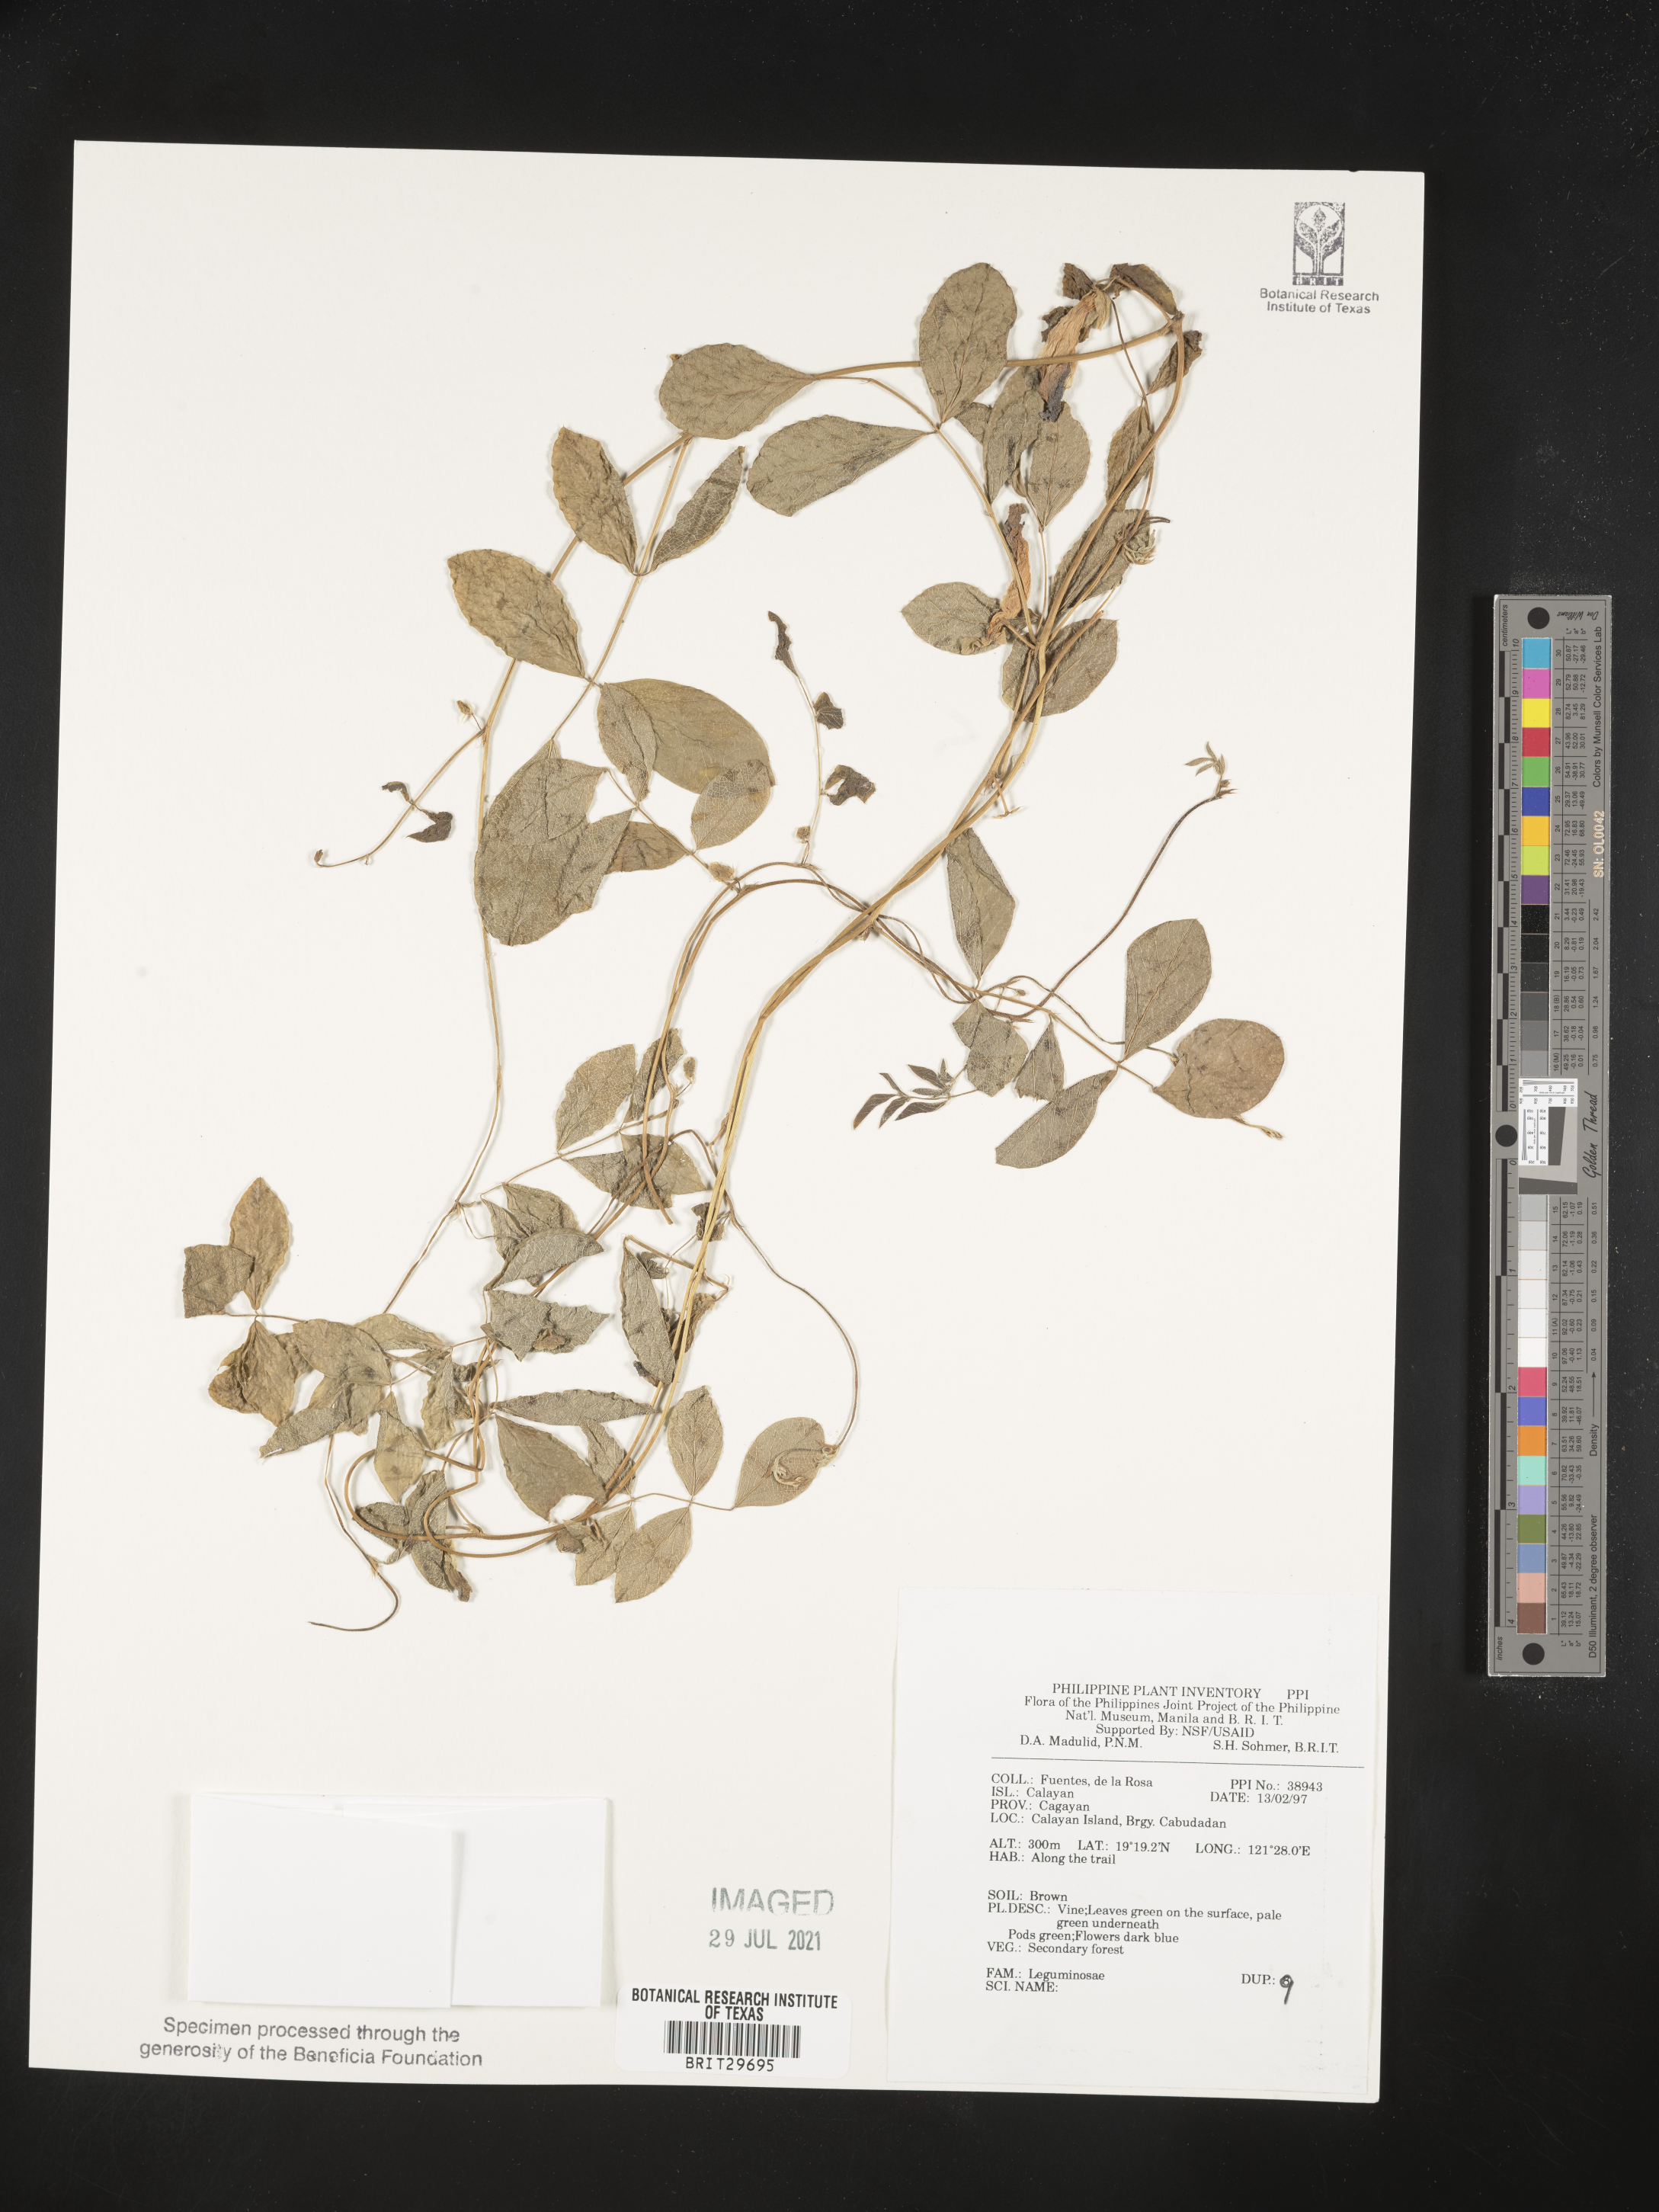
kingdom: Plantae
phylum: Tracheophyta
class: Magnoliopsida
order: Fabales
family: Fabaceae
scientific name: Fabaceae
